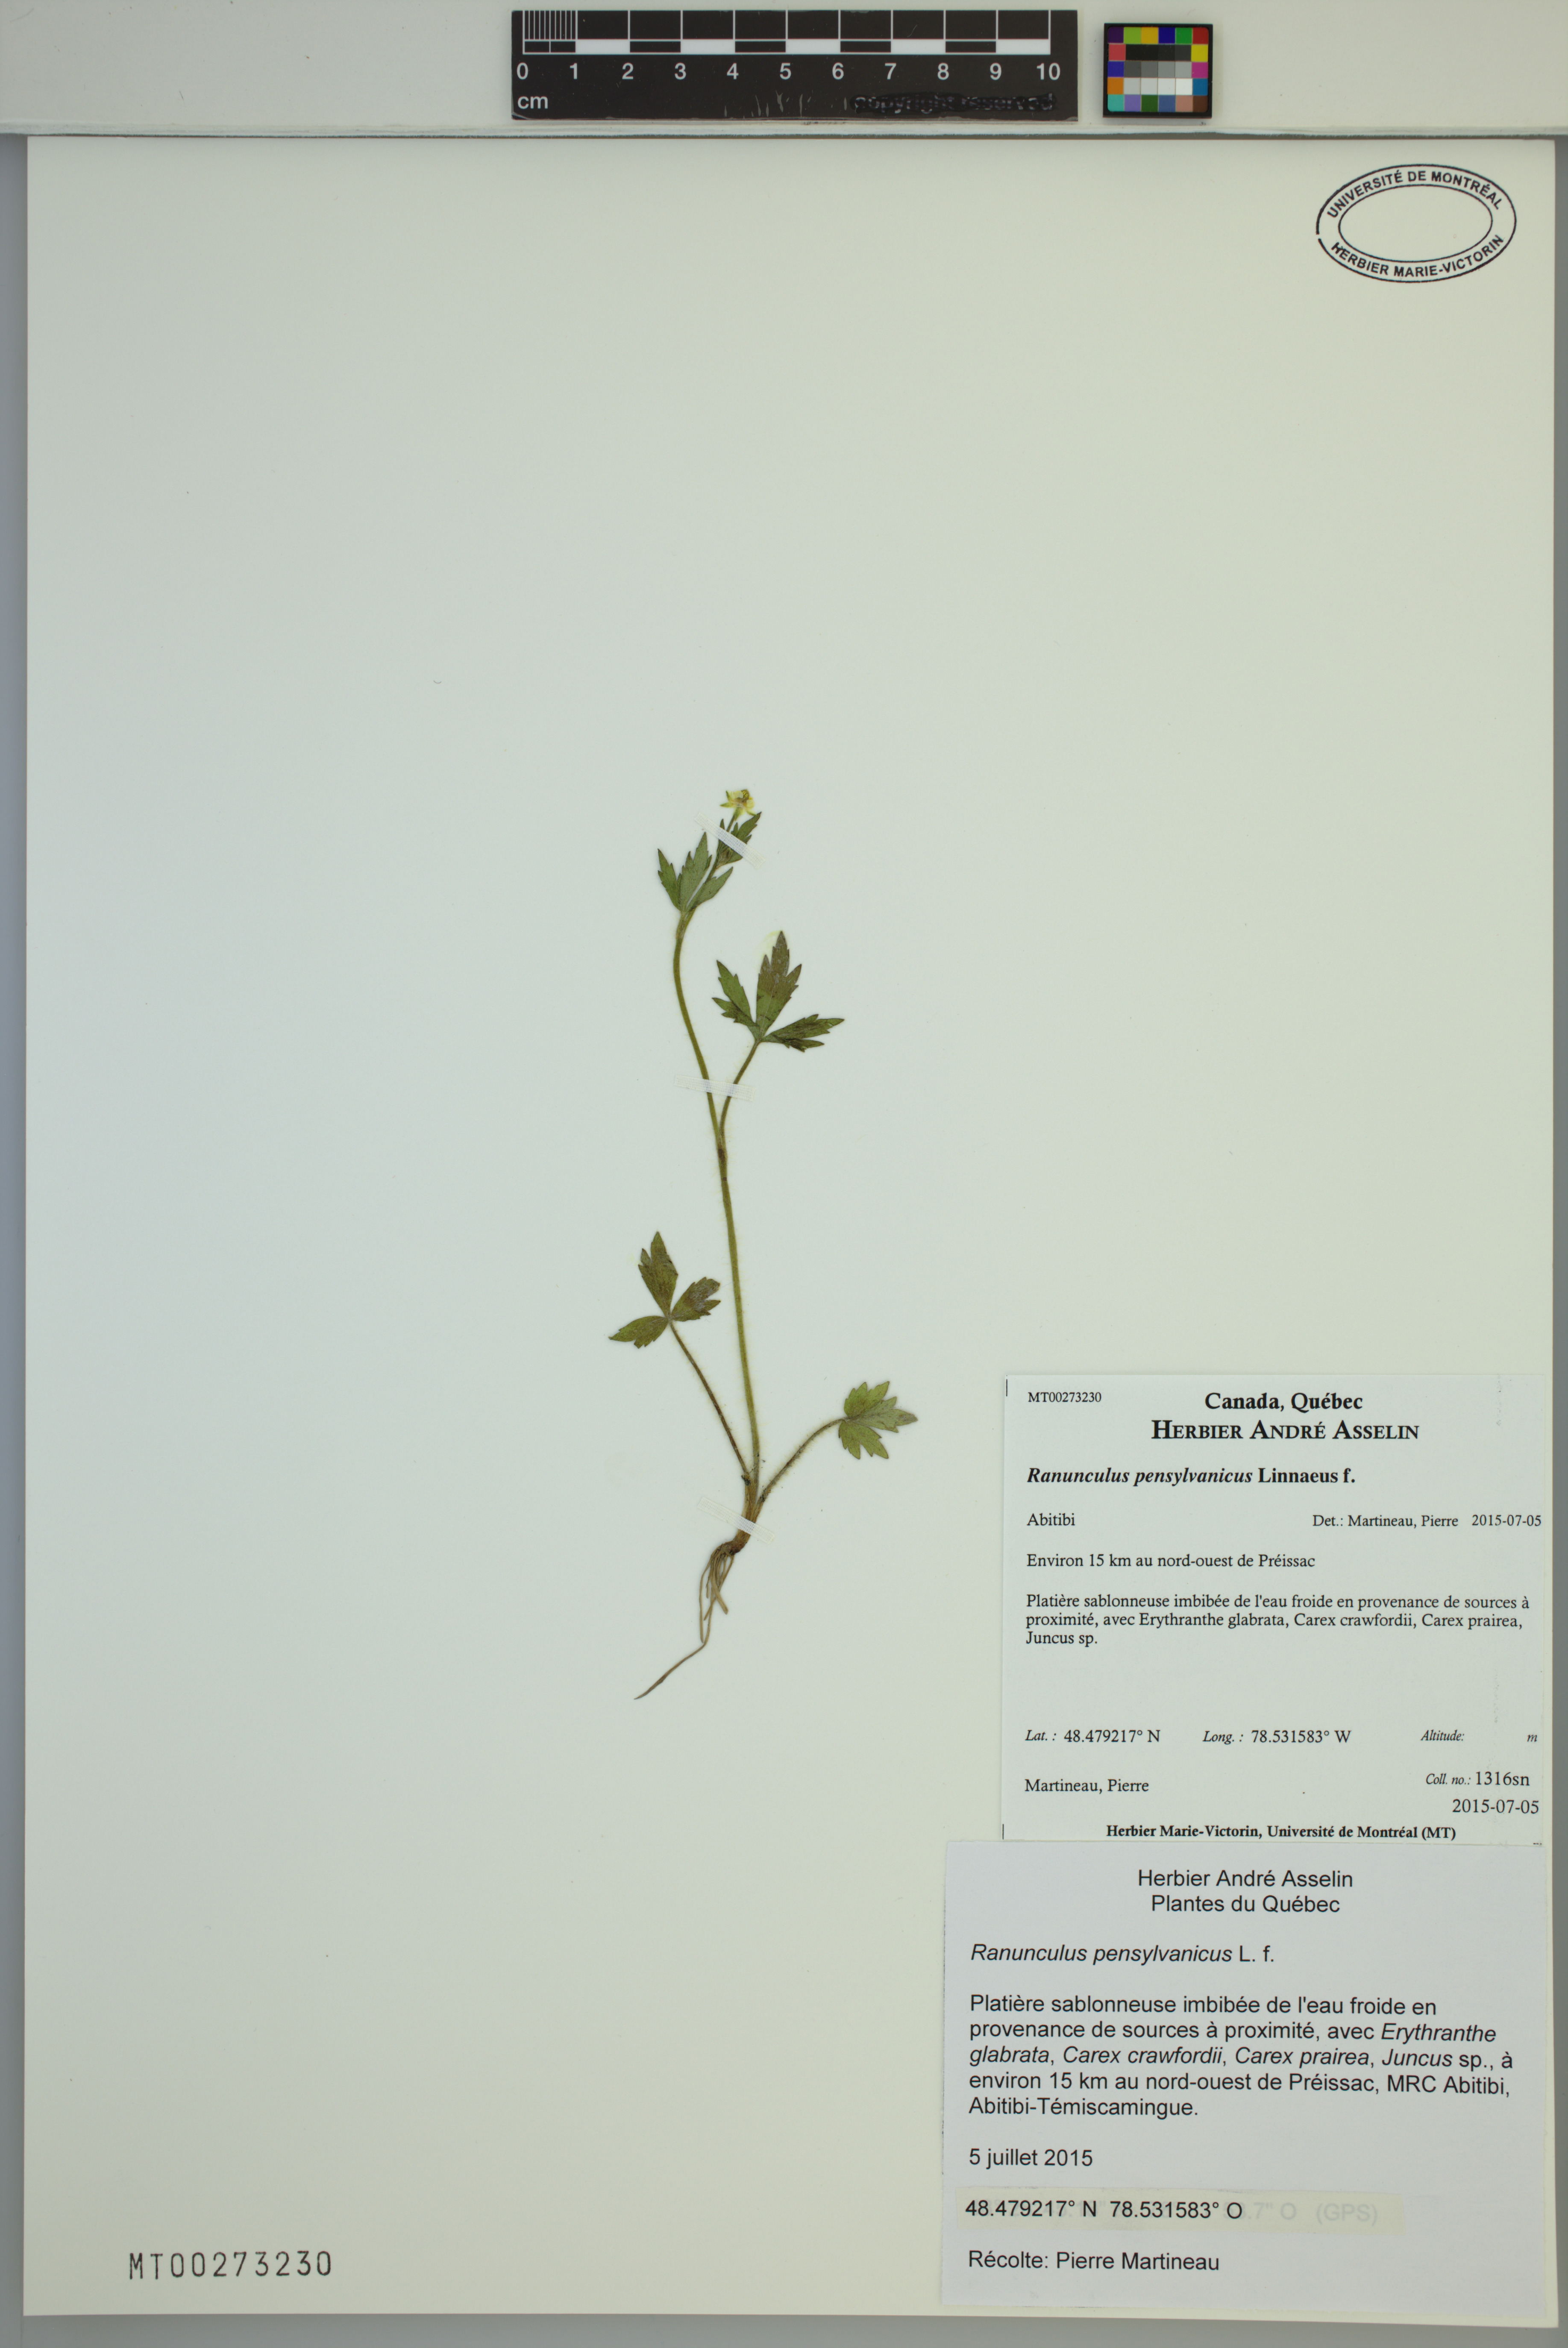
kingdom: Plantae
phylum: Tracheophyta
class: Magnoliopsida
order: Ranunculales
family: Ranunculaceae
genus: Ranunculus
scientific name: Ranunculus pensylvanicus
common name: Bristly buttercup
